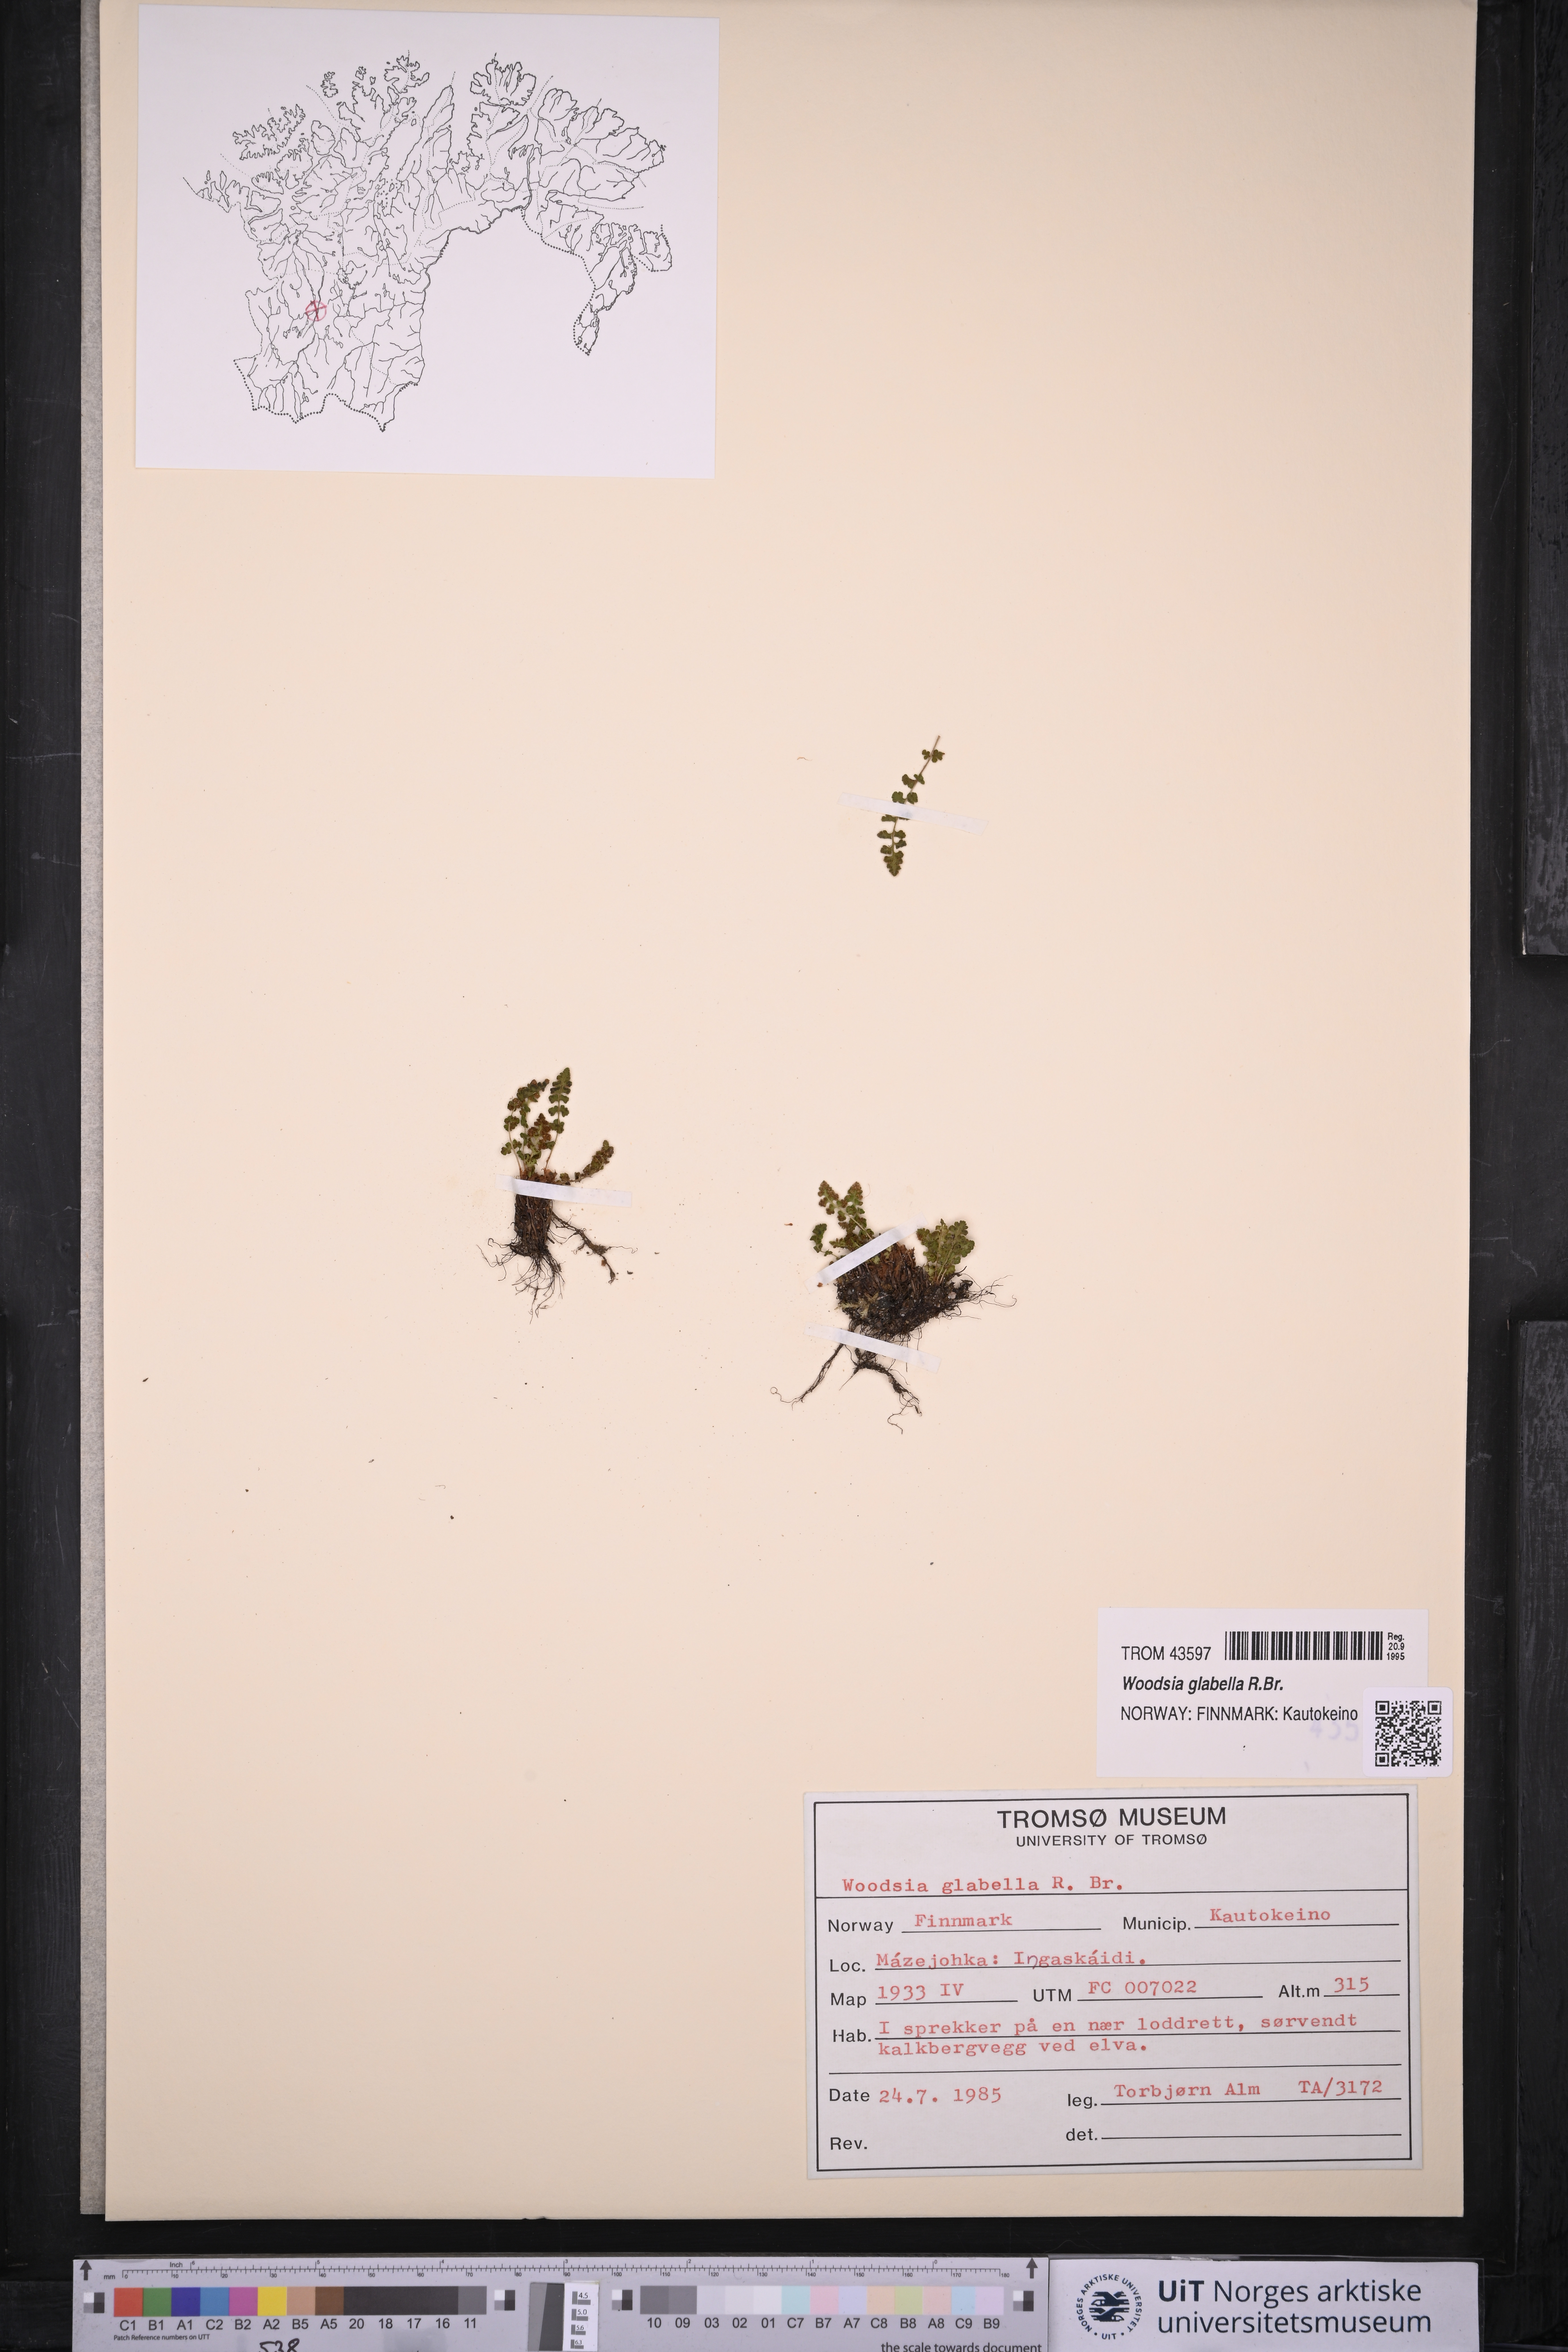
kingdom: Plantae
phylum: Tracheophyta
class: Polypodiopsida
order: Polypodiales
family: Woodsiaceae
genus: Woodsia
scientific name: Woodsia glabella
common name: Smooth woodsia
